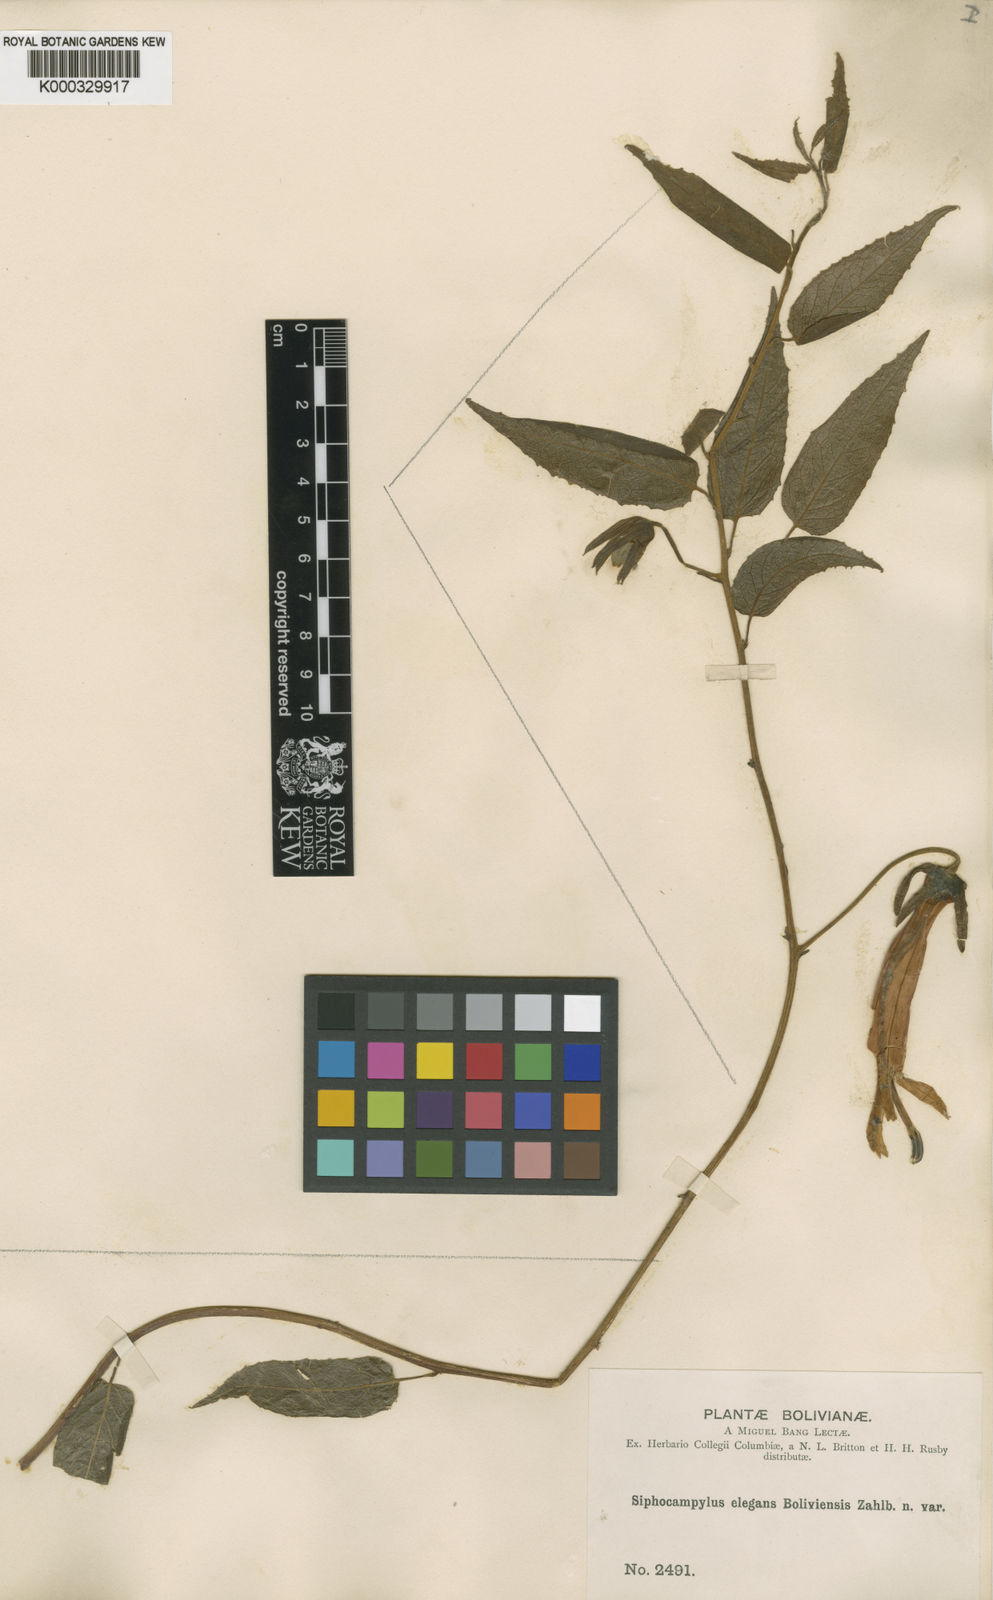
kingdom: Plantae
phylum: Tracheophyta
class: Magnoliopsida
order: Asterales
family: Campanulaceae
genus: Siphocampylus
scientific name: Siphocampylus soraticus
